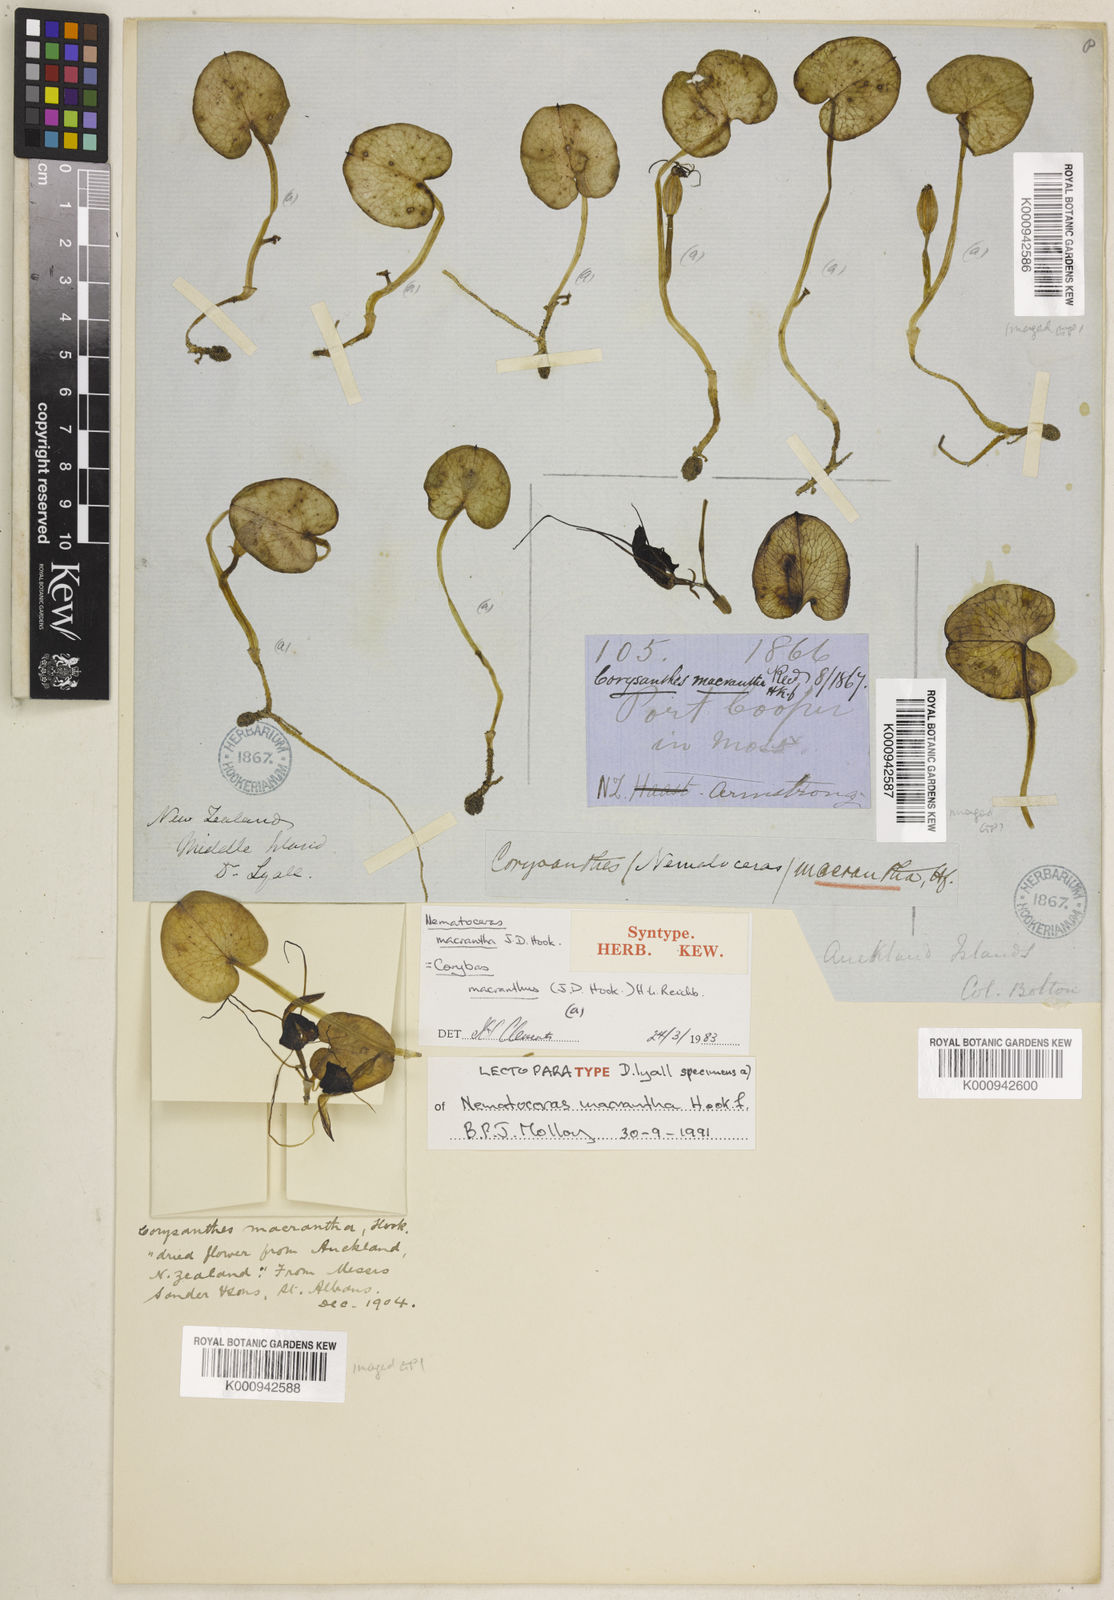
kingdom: Plantae
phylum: Tracheophyta
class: Liliopsida
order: Asparagales
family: Orchidaceae
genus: Corybas
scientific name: Corybas macranthus
